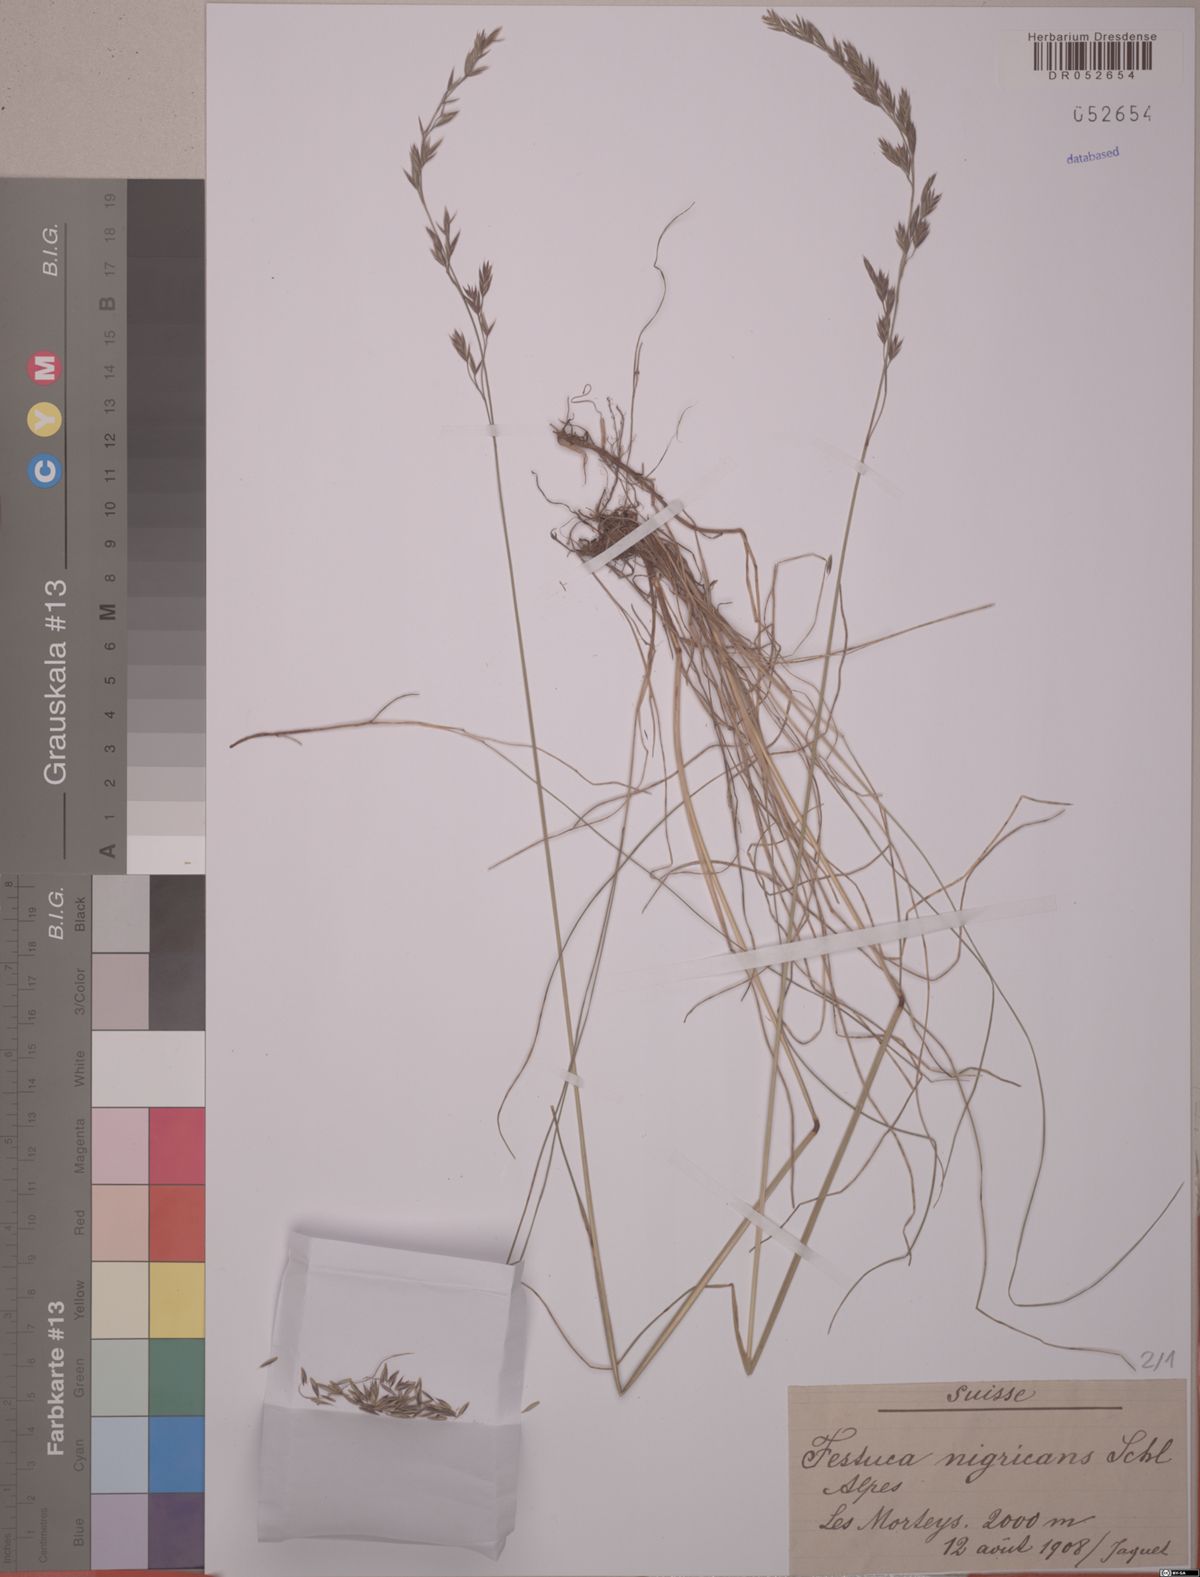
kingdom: Plantae
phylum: Tracheophyta
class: Liliopsida
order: Poales
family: Poaceae
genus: Festuca
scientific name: Festuca violacea
